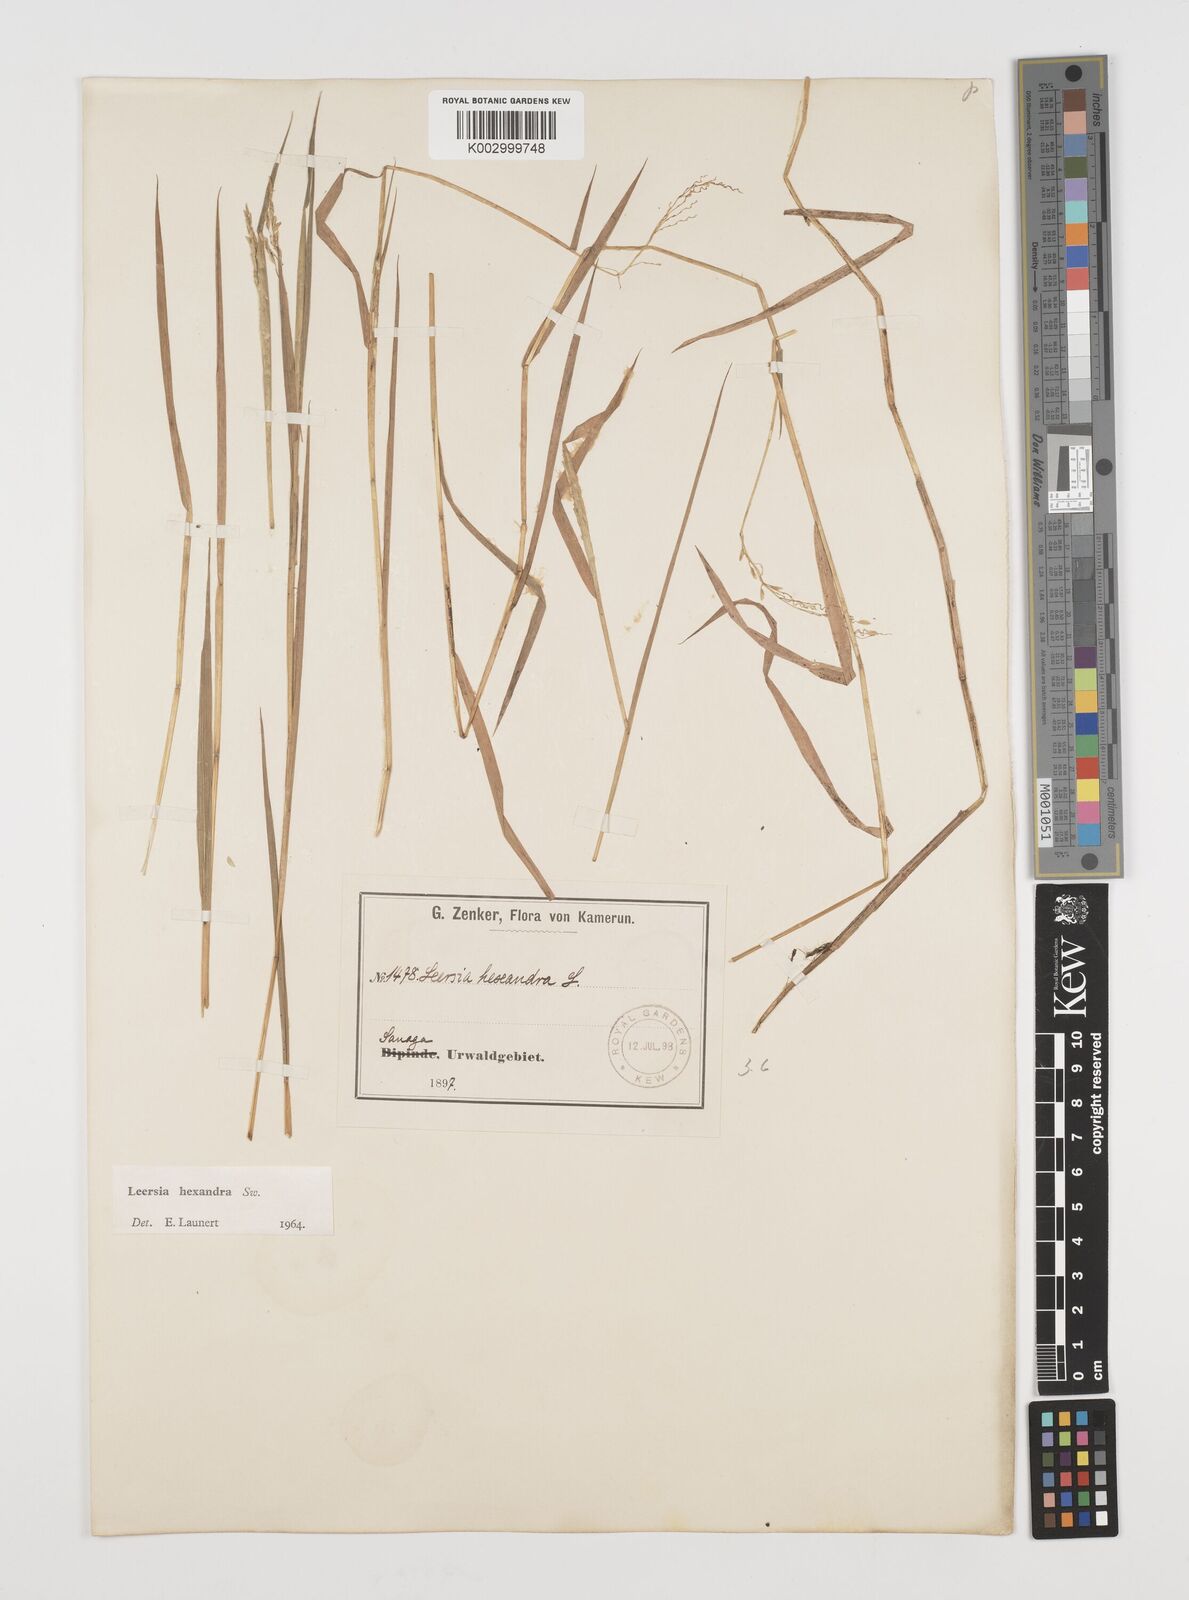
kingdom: Plantae
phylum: Tracheophyta
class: Liliopsida
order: Poales
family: Poaceae
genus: Leersia
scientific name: Leersia hexandra
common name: Southern cut grass
